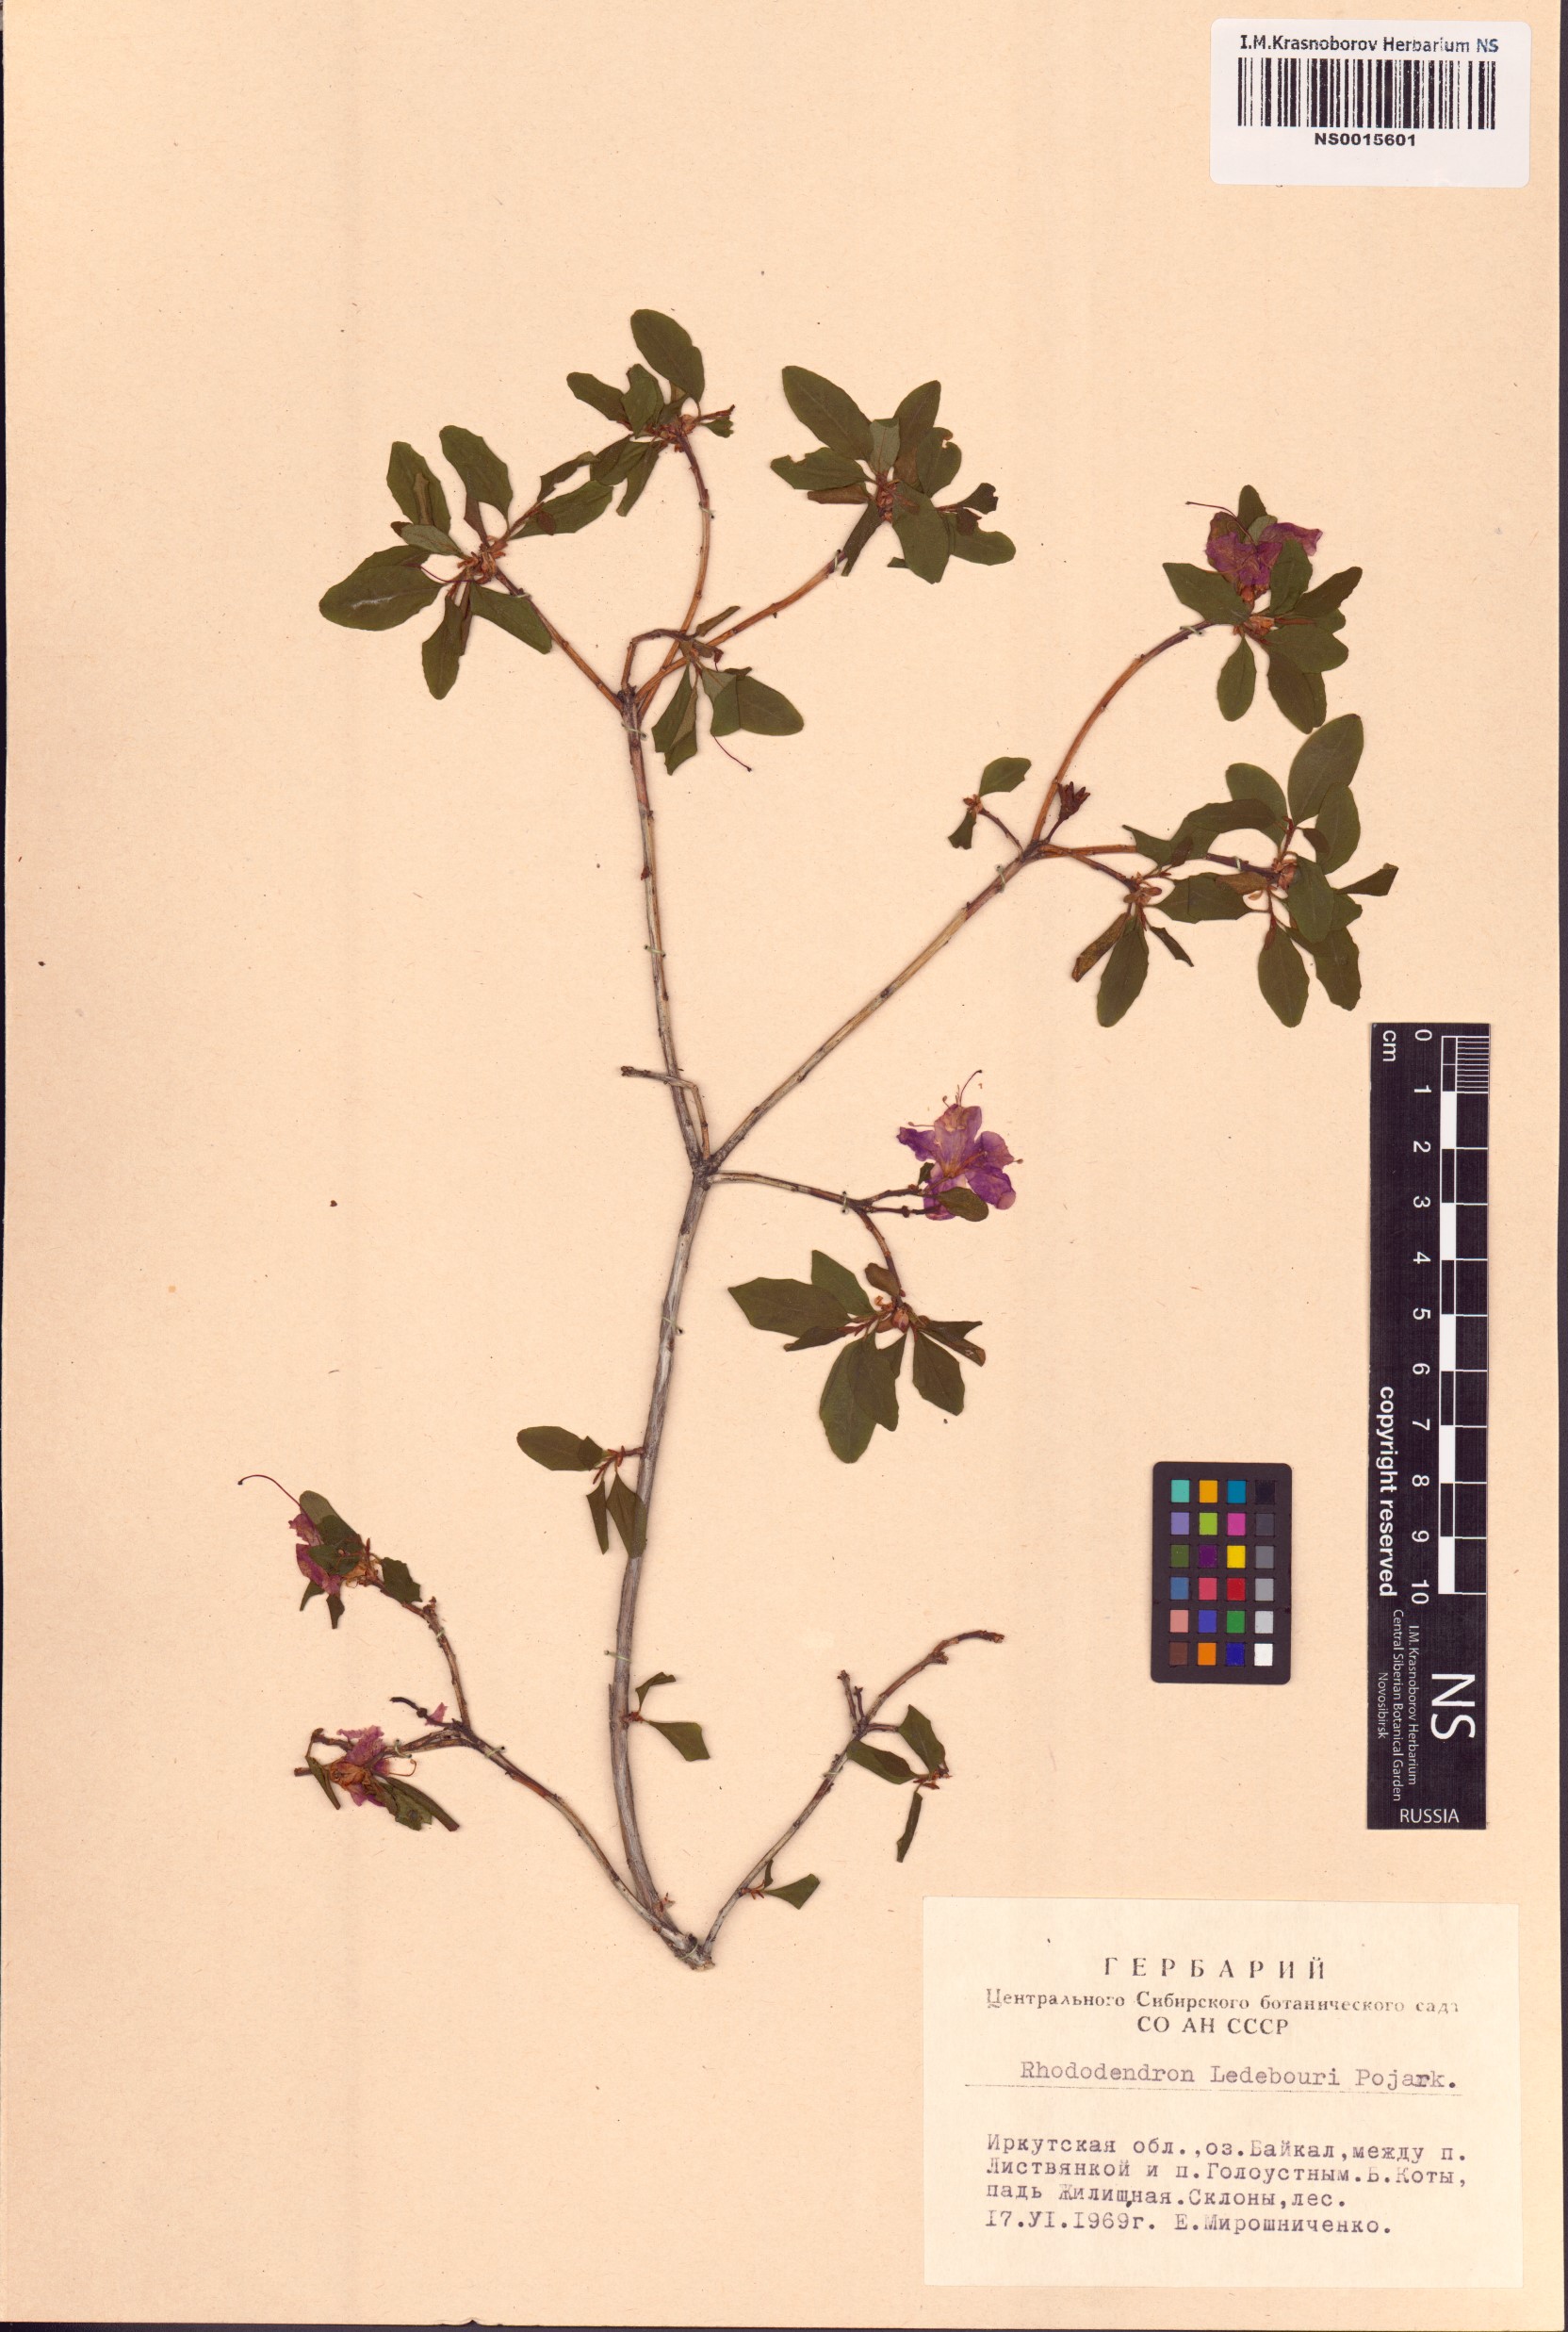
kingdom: Plantae
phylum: Tracheophyta
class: Magnoliopsida
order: Ericales
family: Ericaceae
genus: Rhododendron
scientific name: Rhododendron dauricum
